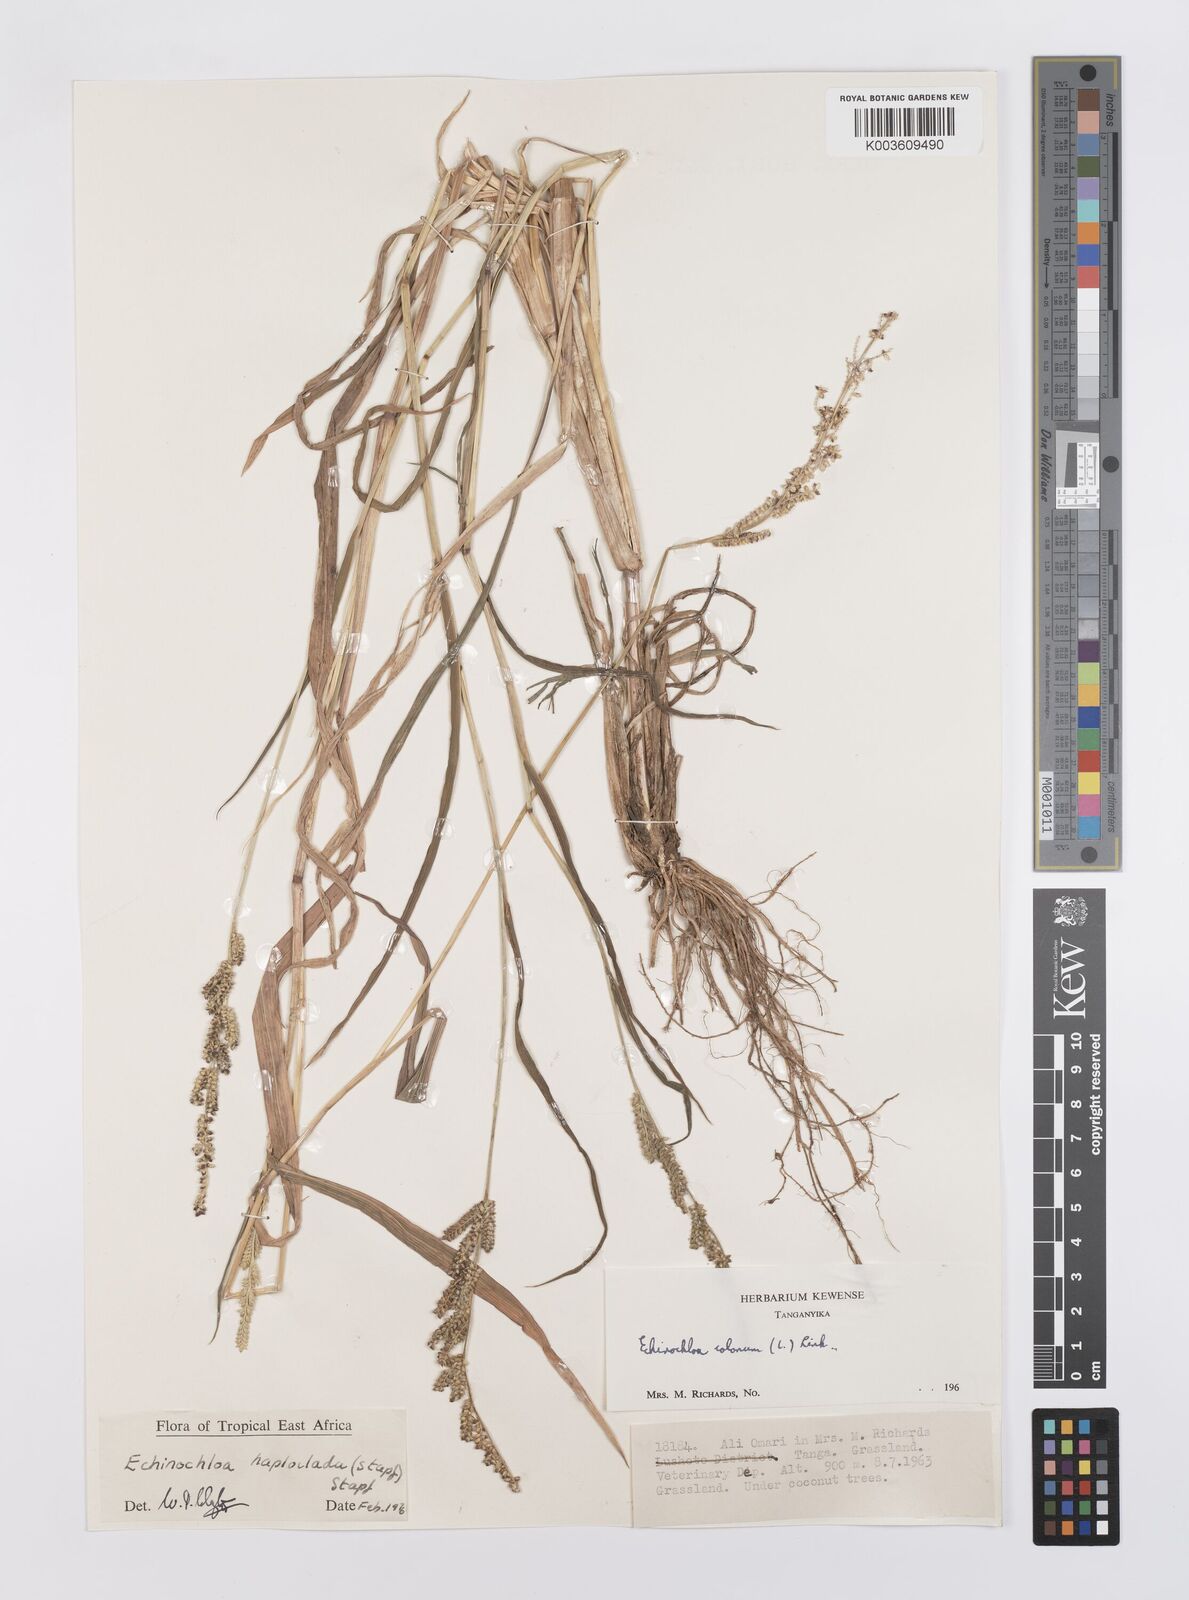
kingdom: Plantae
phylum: Tracheophyta
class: Liliopsida
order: Poales
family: Poaceae
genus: Echinochloa
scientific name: Echinochloa haploclada
